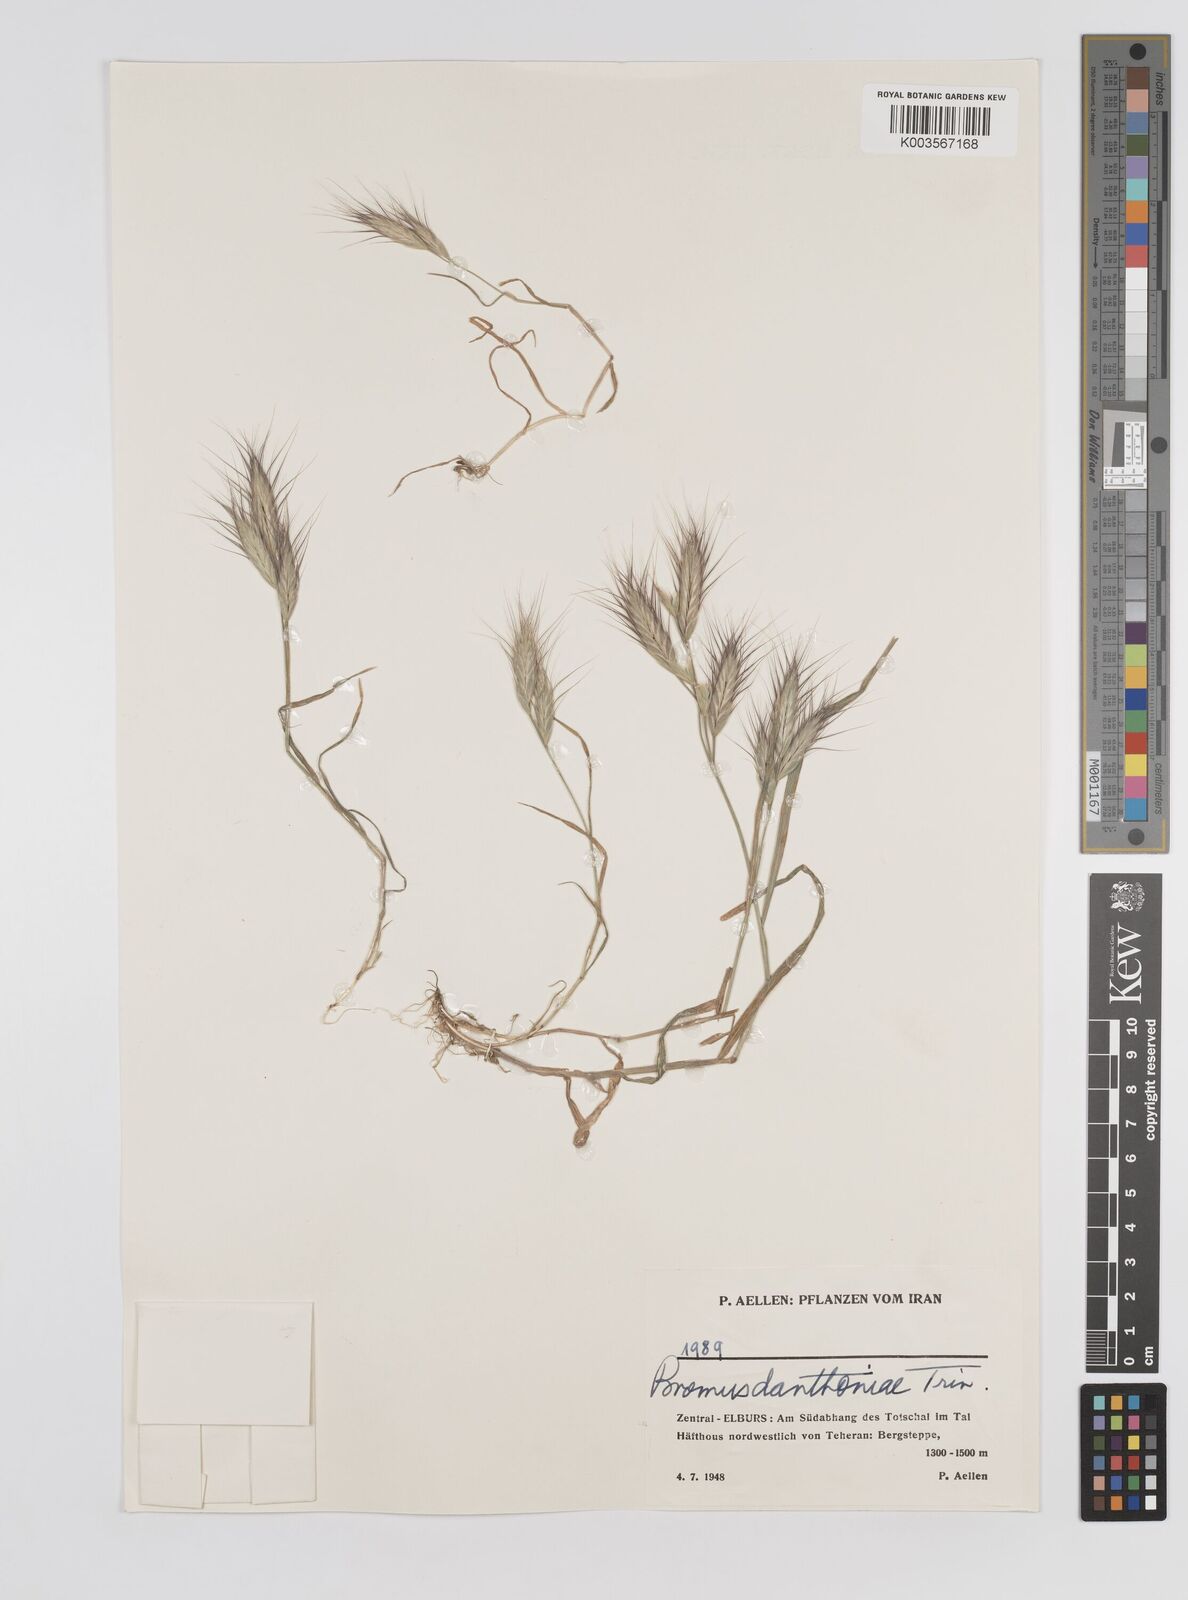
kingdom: Plantae
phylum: Tracheophyta
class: Liliopsida
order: Poales
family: Poaceae
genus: Bromus
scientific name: Bromus danthoniae
